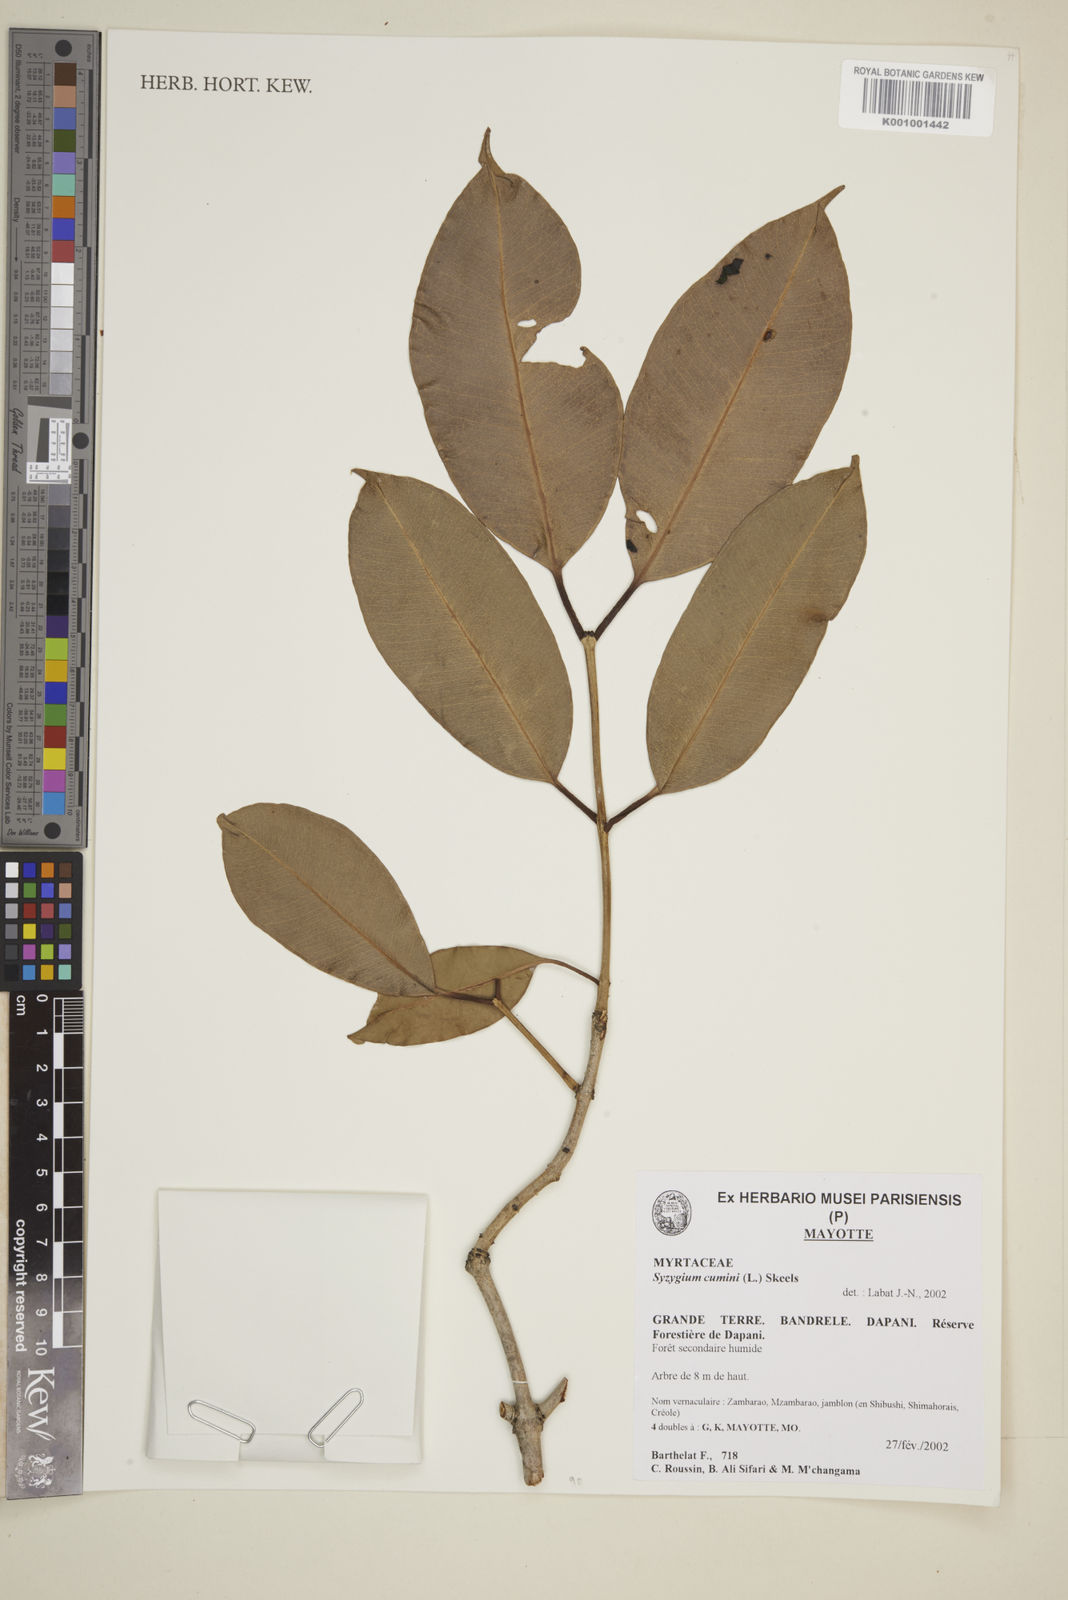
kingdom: Plantae
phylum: Tracheophyta
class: Magnoliopsida
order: Myrtales
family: Myrtaceae
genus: Syzygium
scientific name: Syzygium cumini
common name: Java plum
